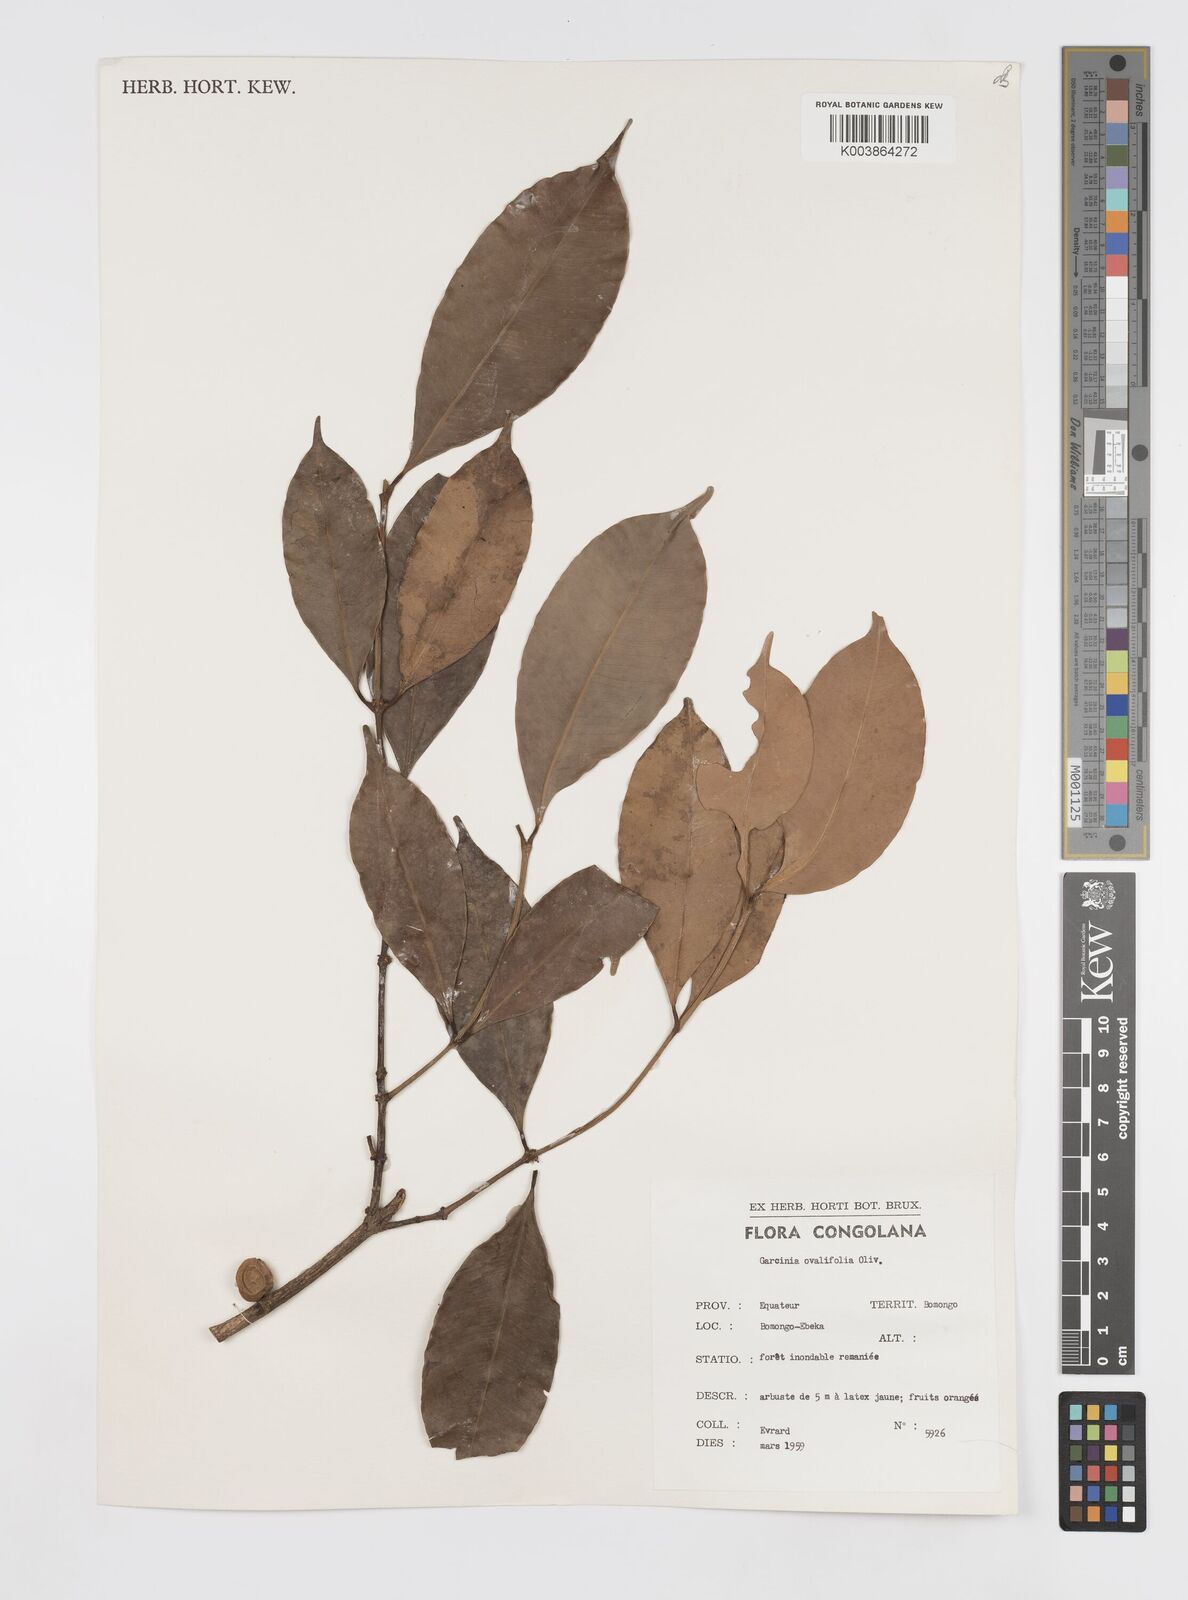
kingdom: Plantae
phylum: Tracheophyta
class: Magnoliopsida
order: Malpighiales
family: Clusiaceae
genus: Garcinia
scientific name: Garcinia ovalifolia
